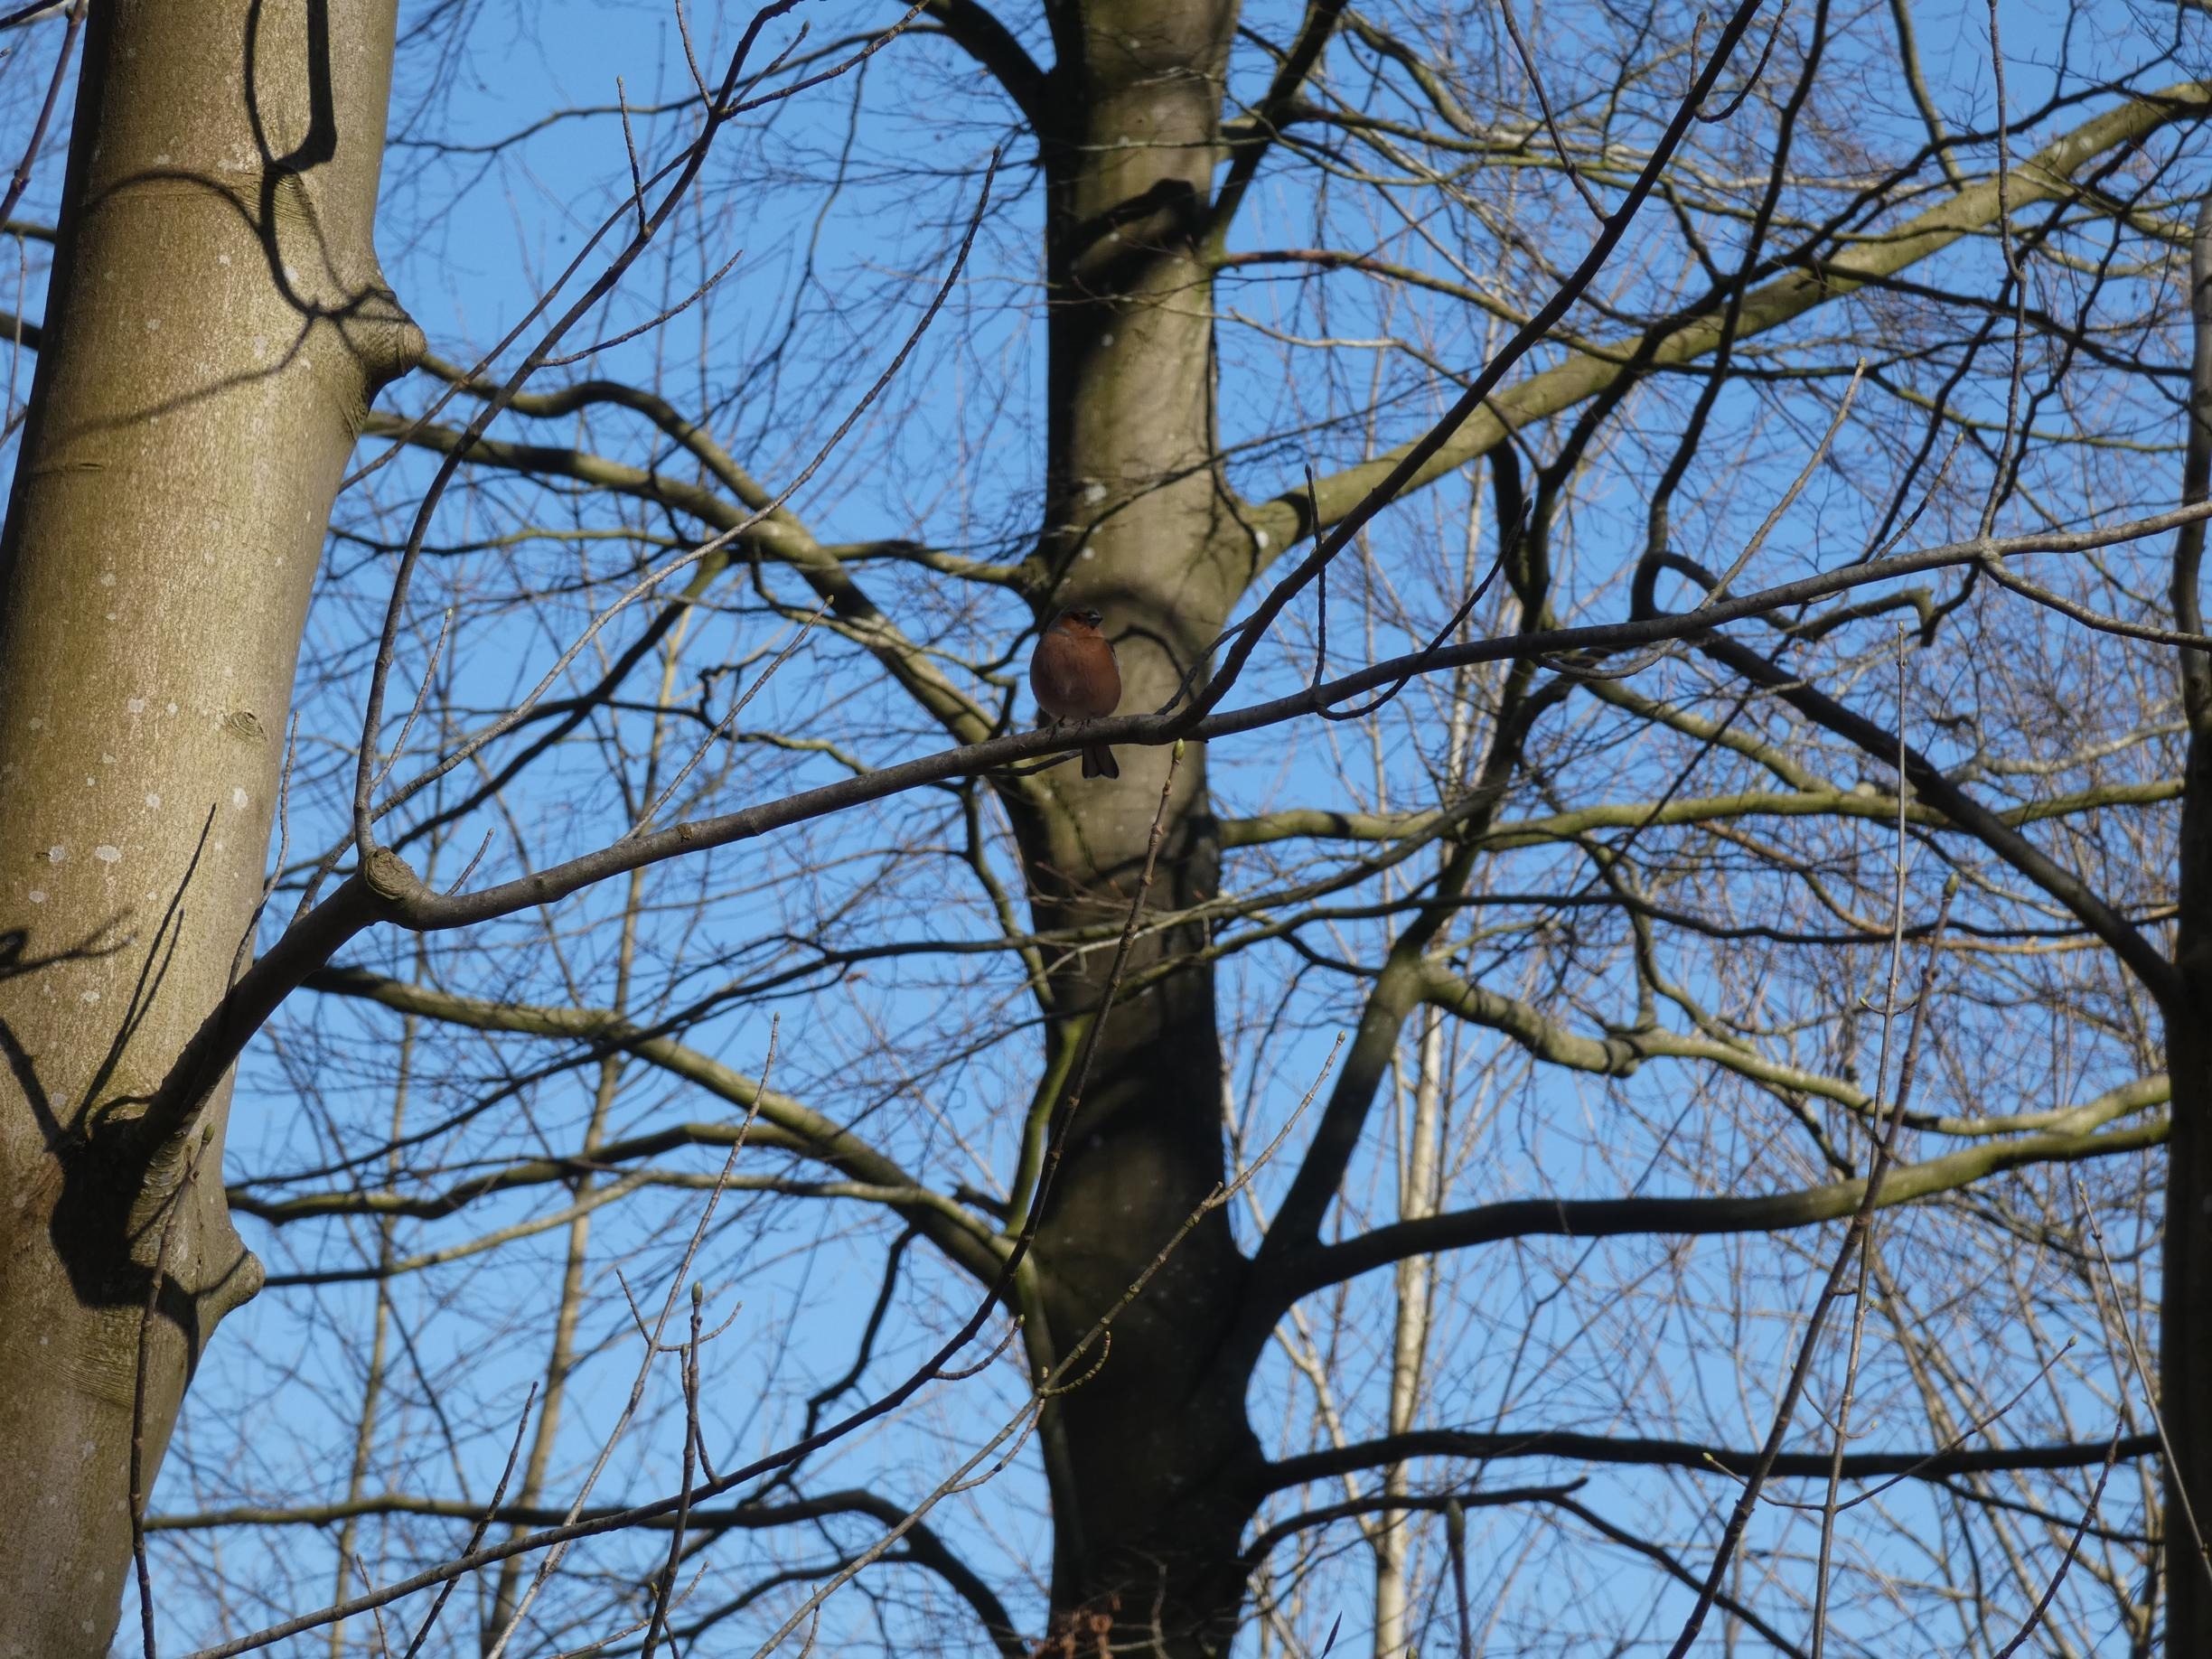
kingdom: Animalia
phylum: Chordata
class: Aves
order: Passeriformes
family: Fringillidae
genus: Fringilla
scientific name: Fringilla coelebs
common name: Bogfinke
